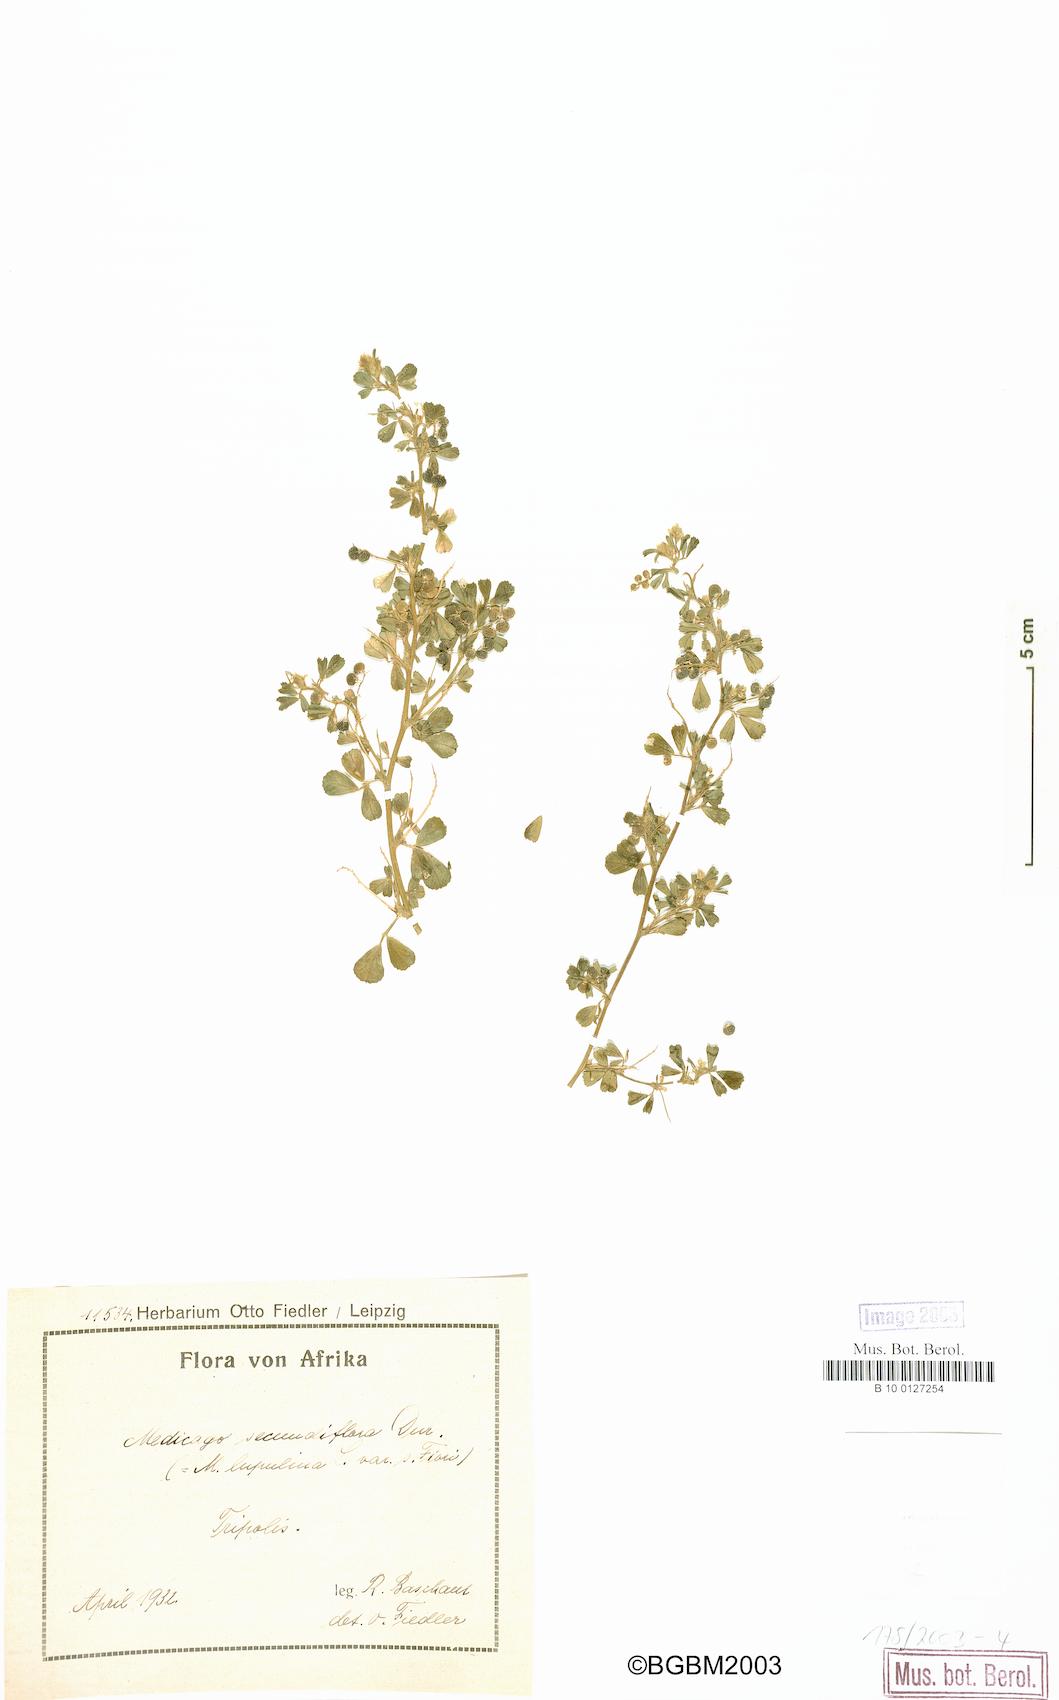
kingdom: Plantae
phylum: Tracheophyta
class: Magnoliopsida
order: Fabales
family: Fabaceae
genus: Medicago
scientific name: Medicago secundiflora
